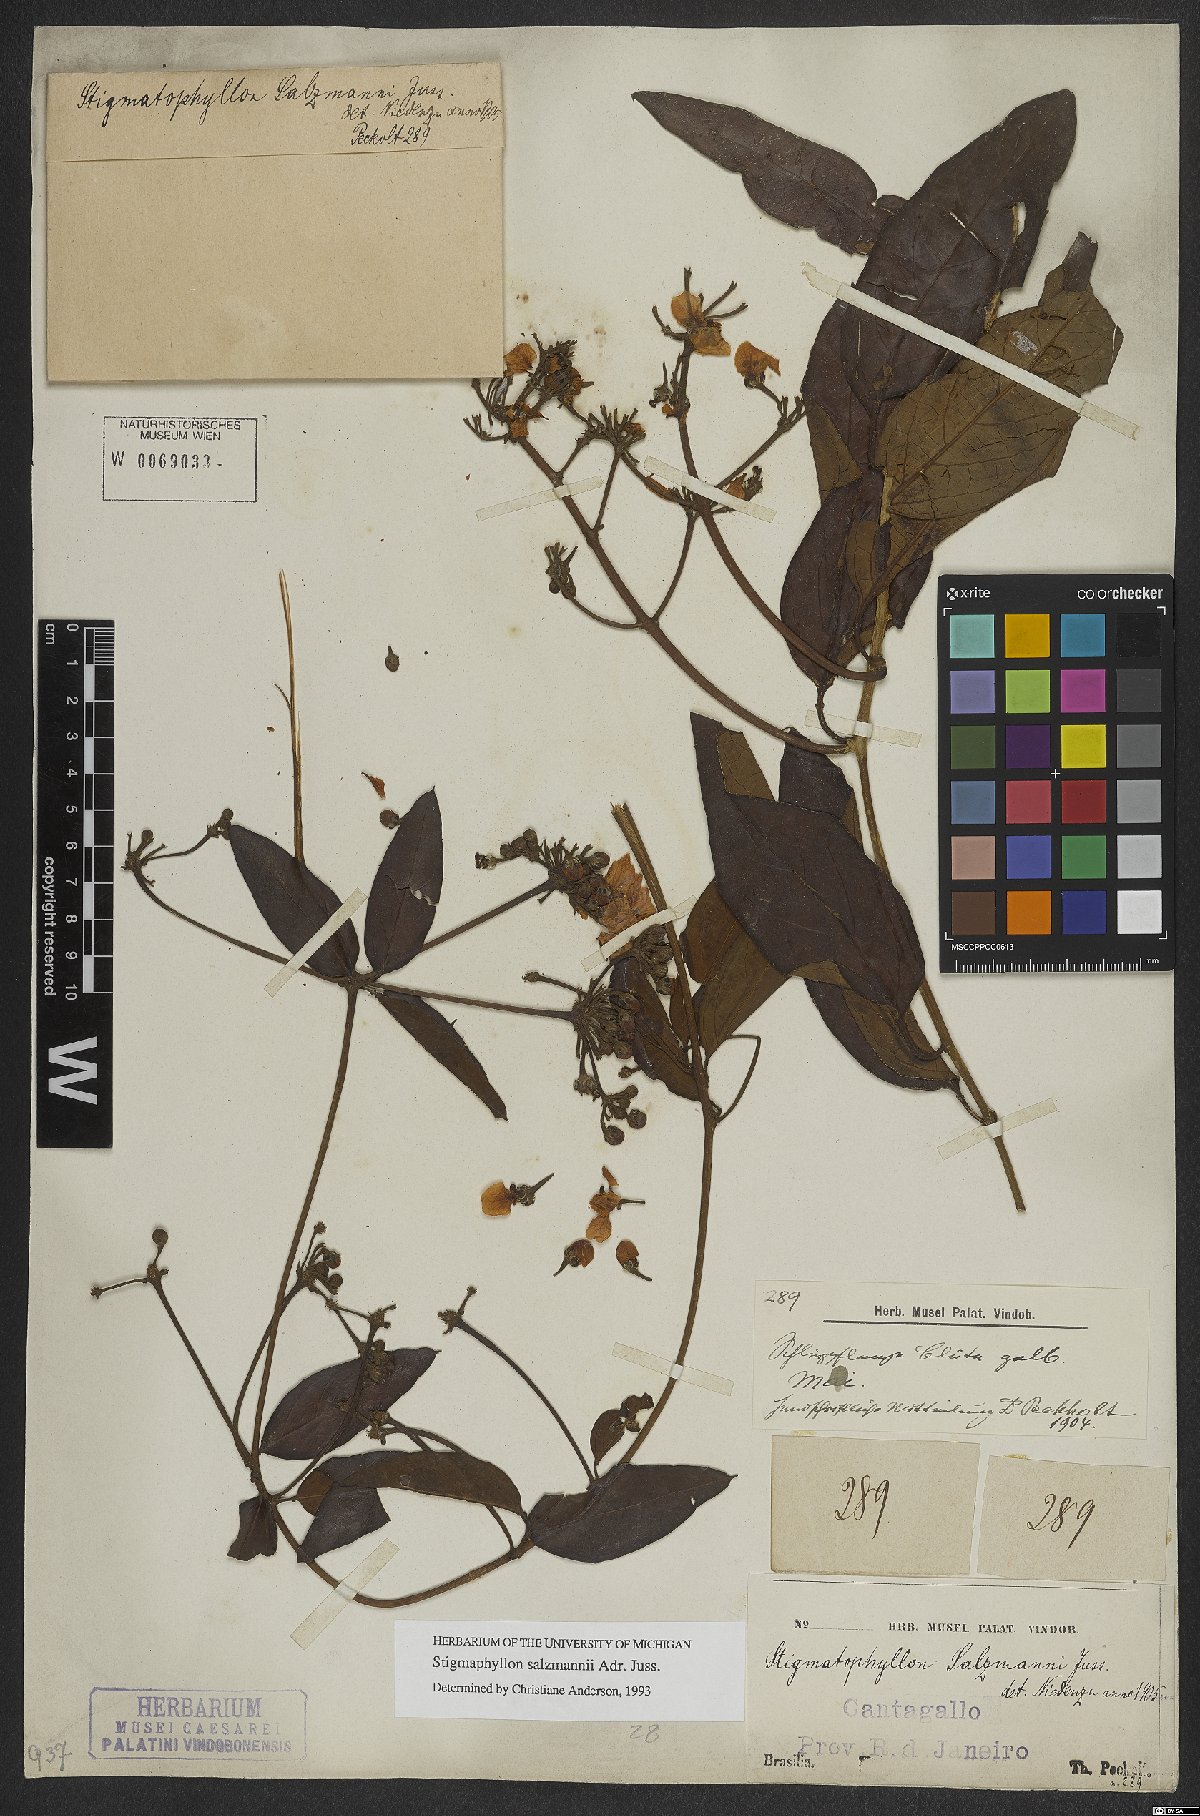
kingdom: Plantae
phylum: Tracheophyta
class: Magnoliopsida
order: Malpighiales
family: Malpighiaceae
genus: Stigmaphyllon
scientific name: Stigmaphyllon salzmannii
